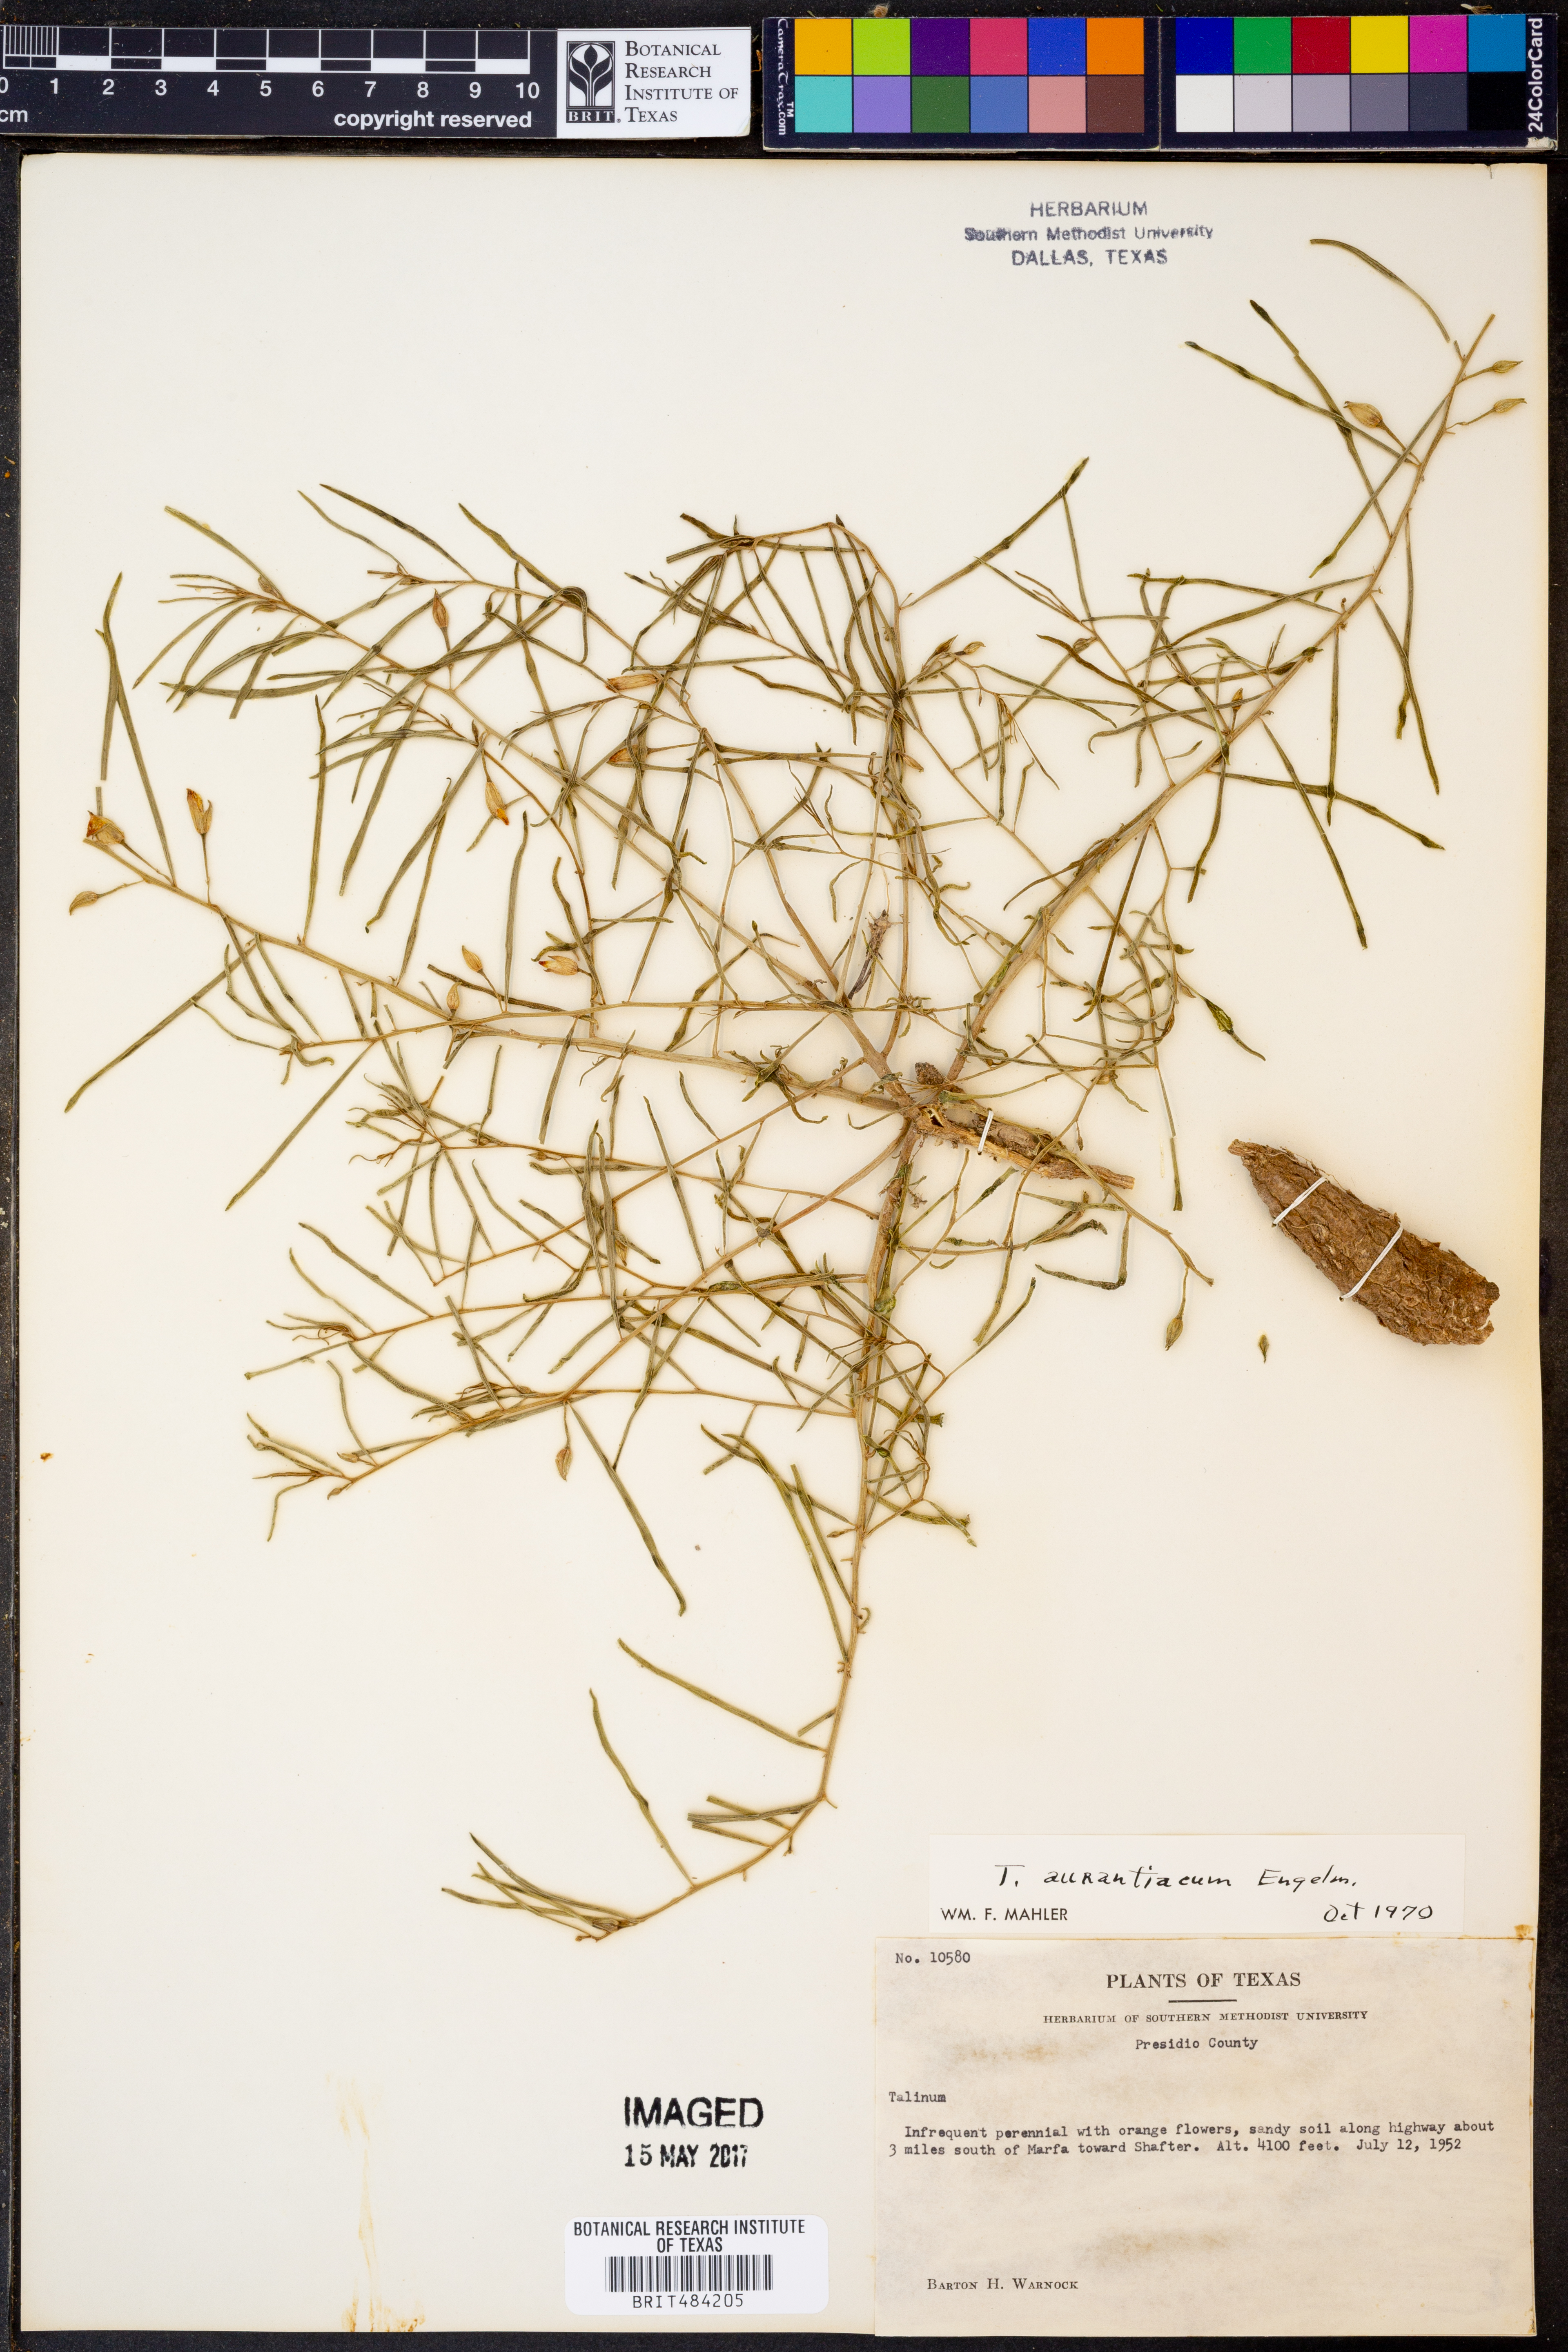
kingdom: Plantae
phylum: Tracheophyta
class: Magnoliopsida
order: Caryophyllales
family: Montiaceae
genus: Phemeranthus
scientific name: Phemeranthus aurantiacus
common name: Orange fameflower
